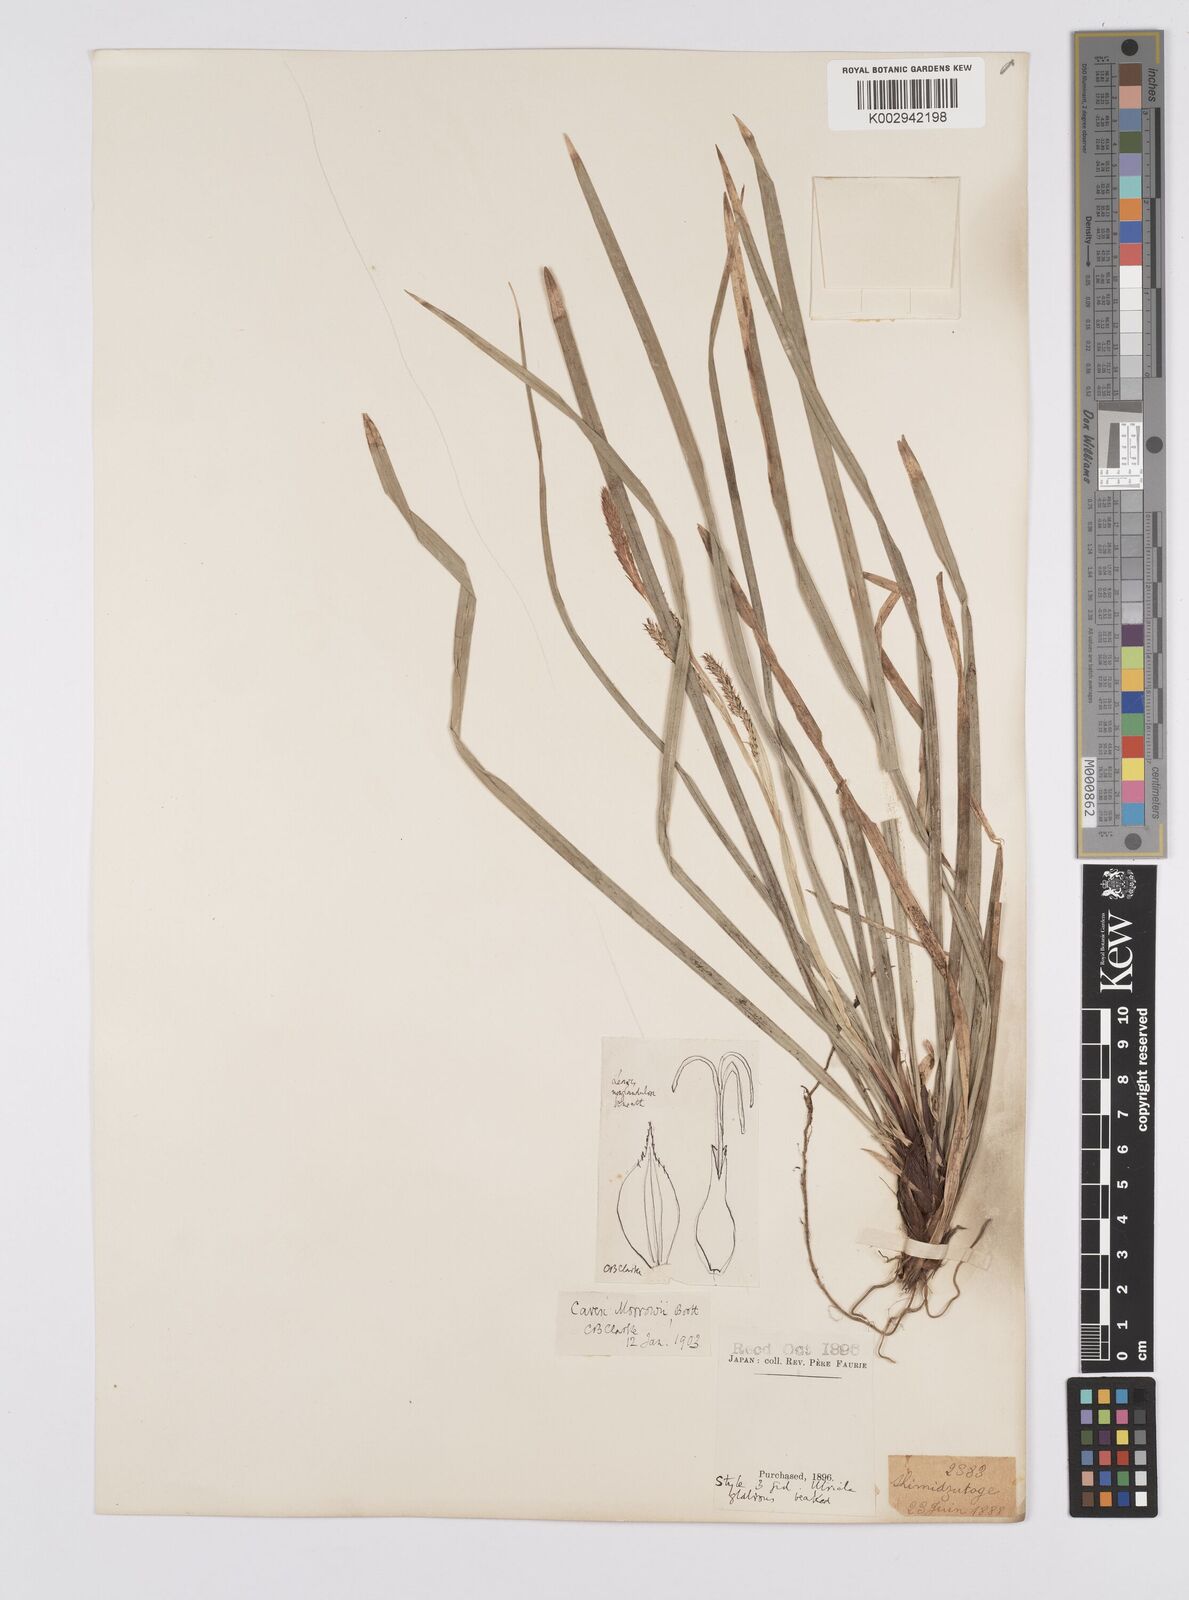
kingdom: Plantae
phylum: Tracheophyta
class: Liliopsida
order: Poales
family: Cyperaceae
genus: Carex
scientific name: Carex morrowii
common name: Japanese sedge
